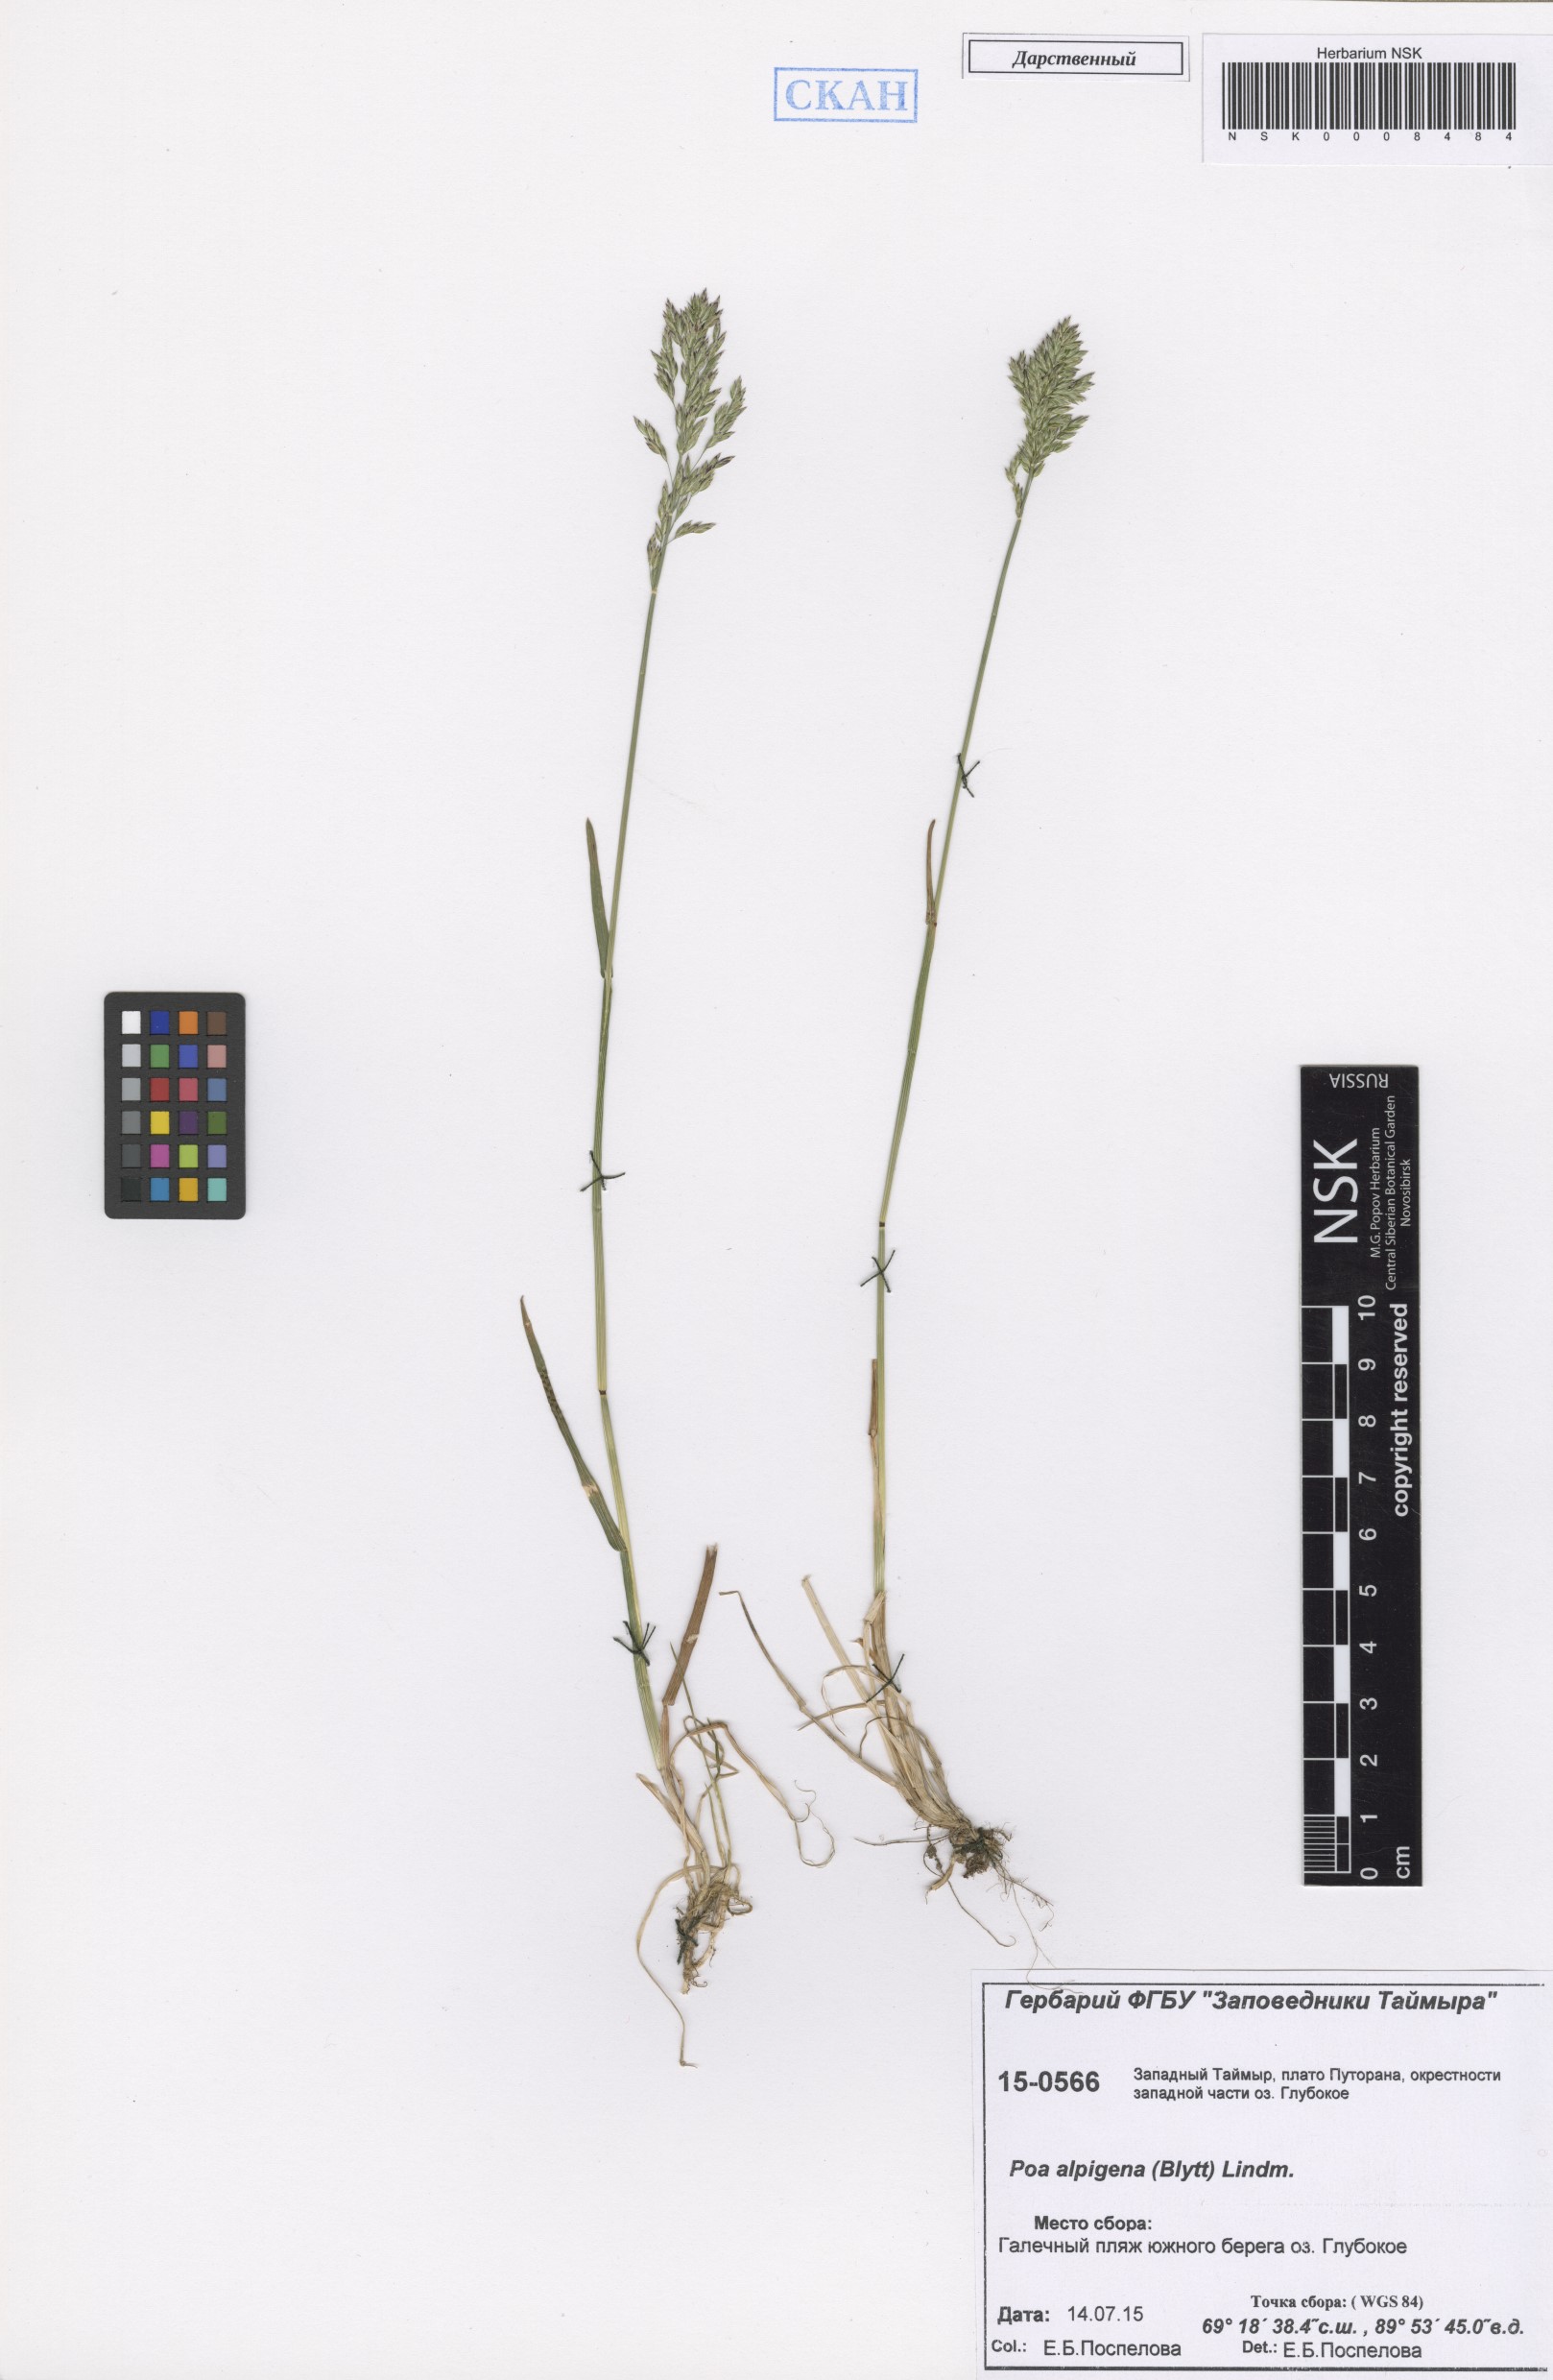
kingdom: Plantae
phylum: Tracheophyta
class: Liliopsida
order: Poales
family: Poaceae
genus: Poa
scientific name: Poa alpigena
